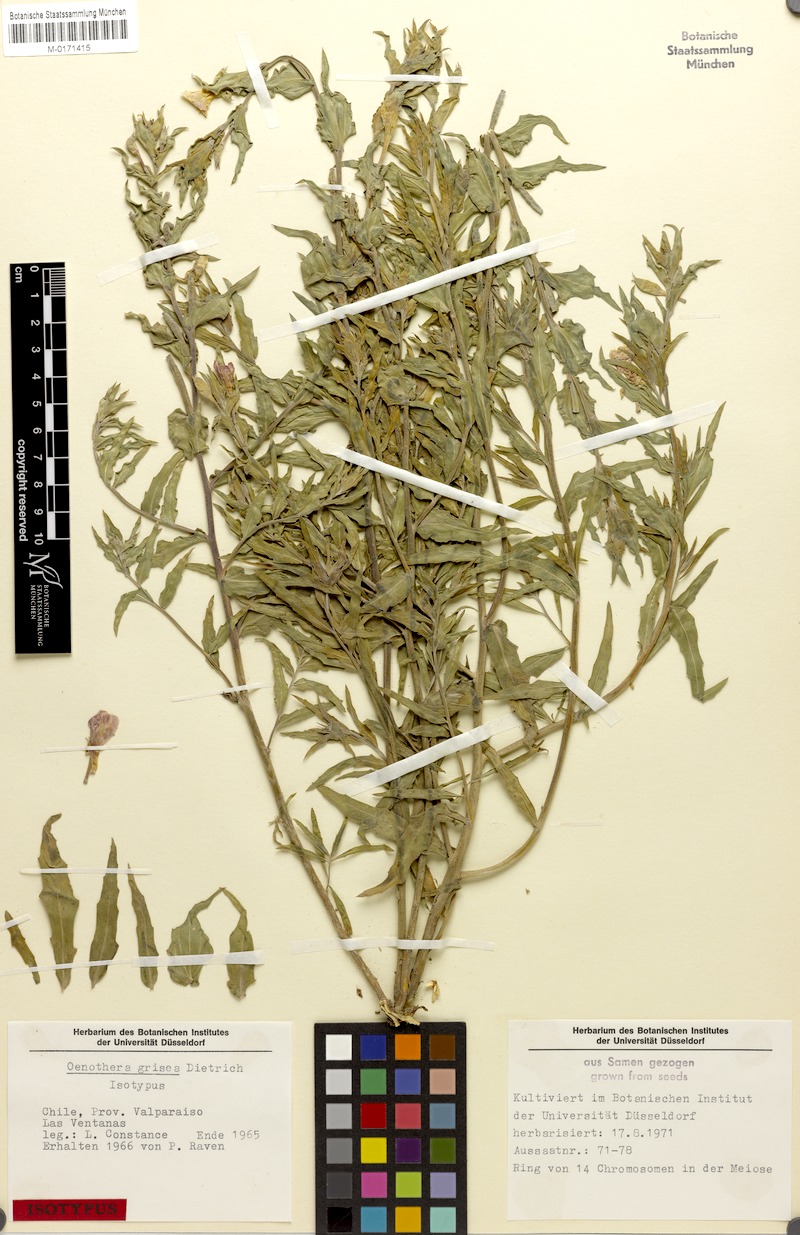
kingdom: Plantae
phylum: Tracheophyta
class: Magnoliopsida
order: Myrtales
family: Onagraceae
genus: Oenothera
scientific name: Oenothera grisea
